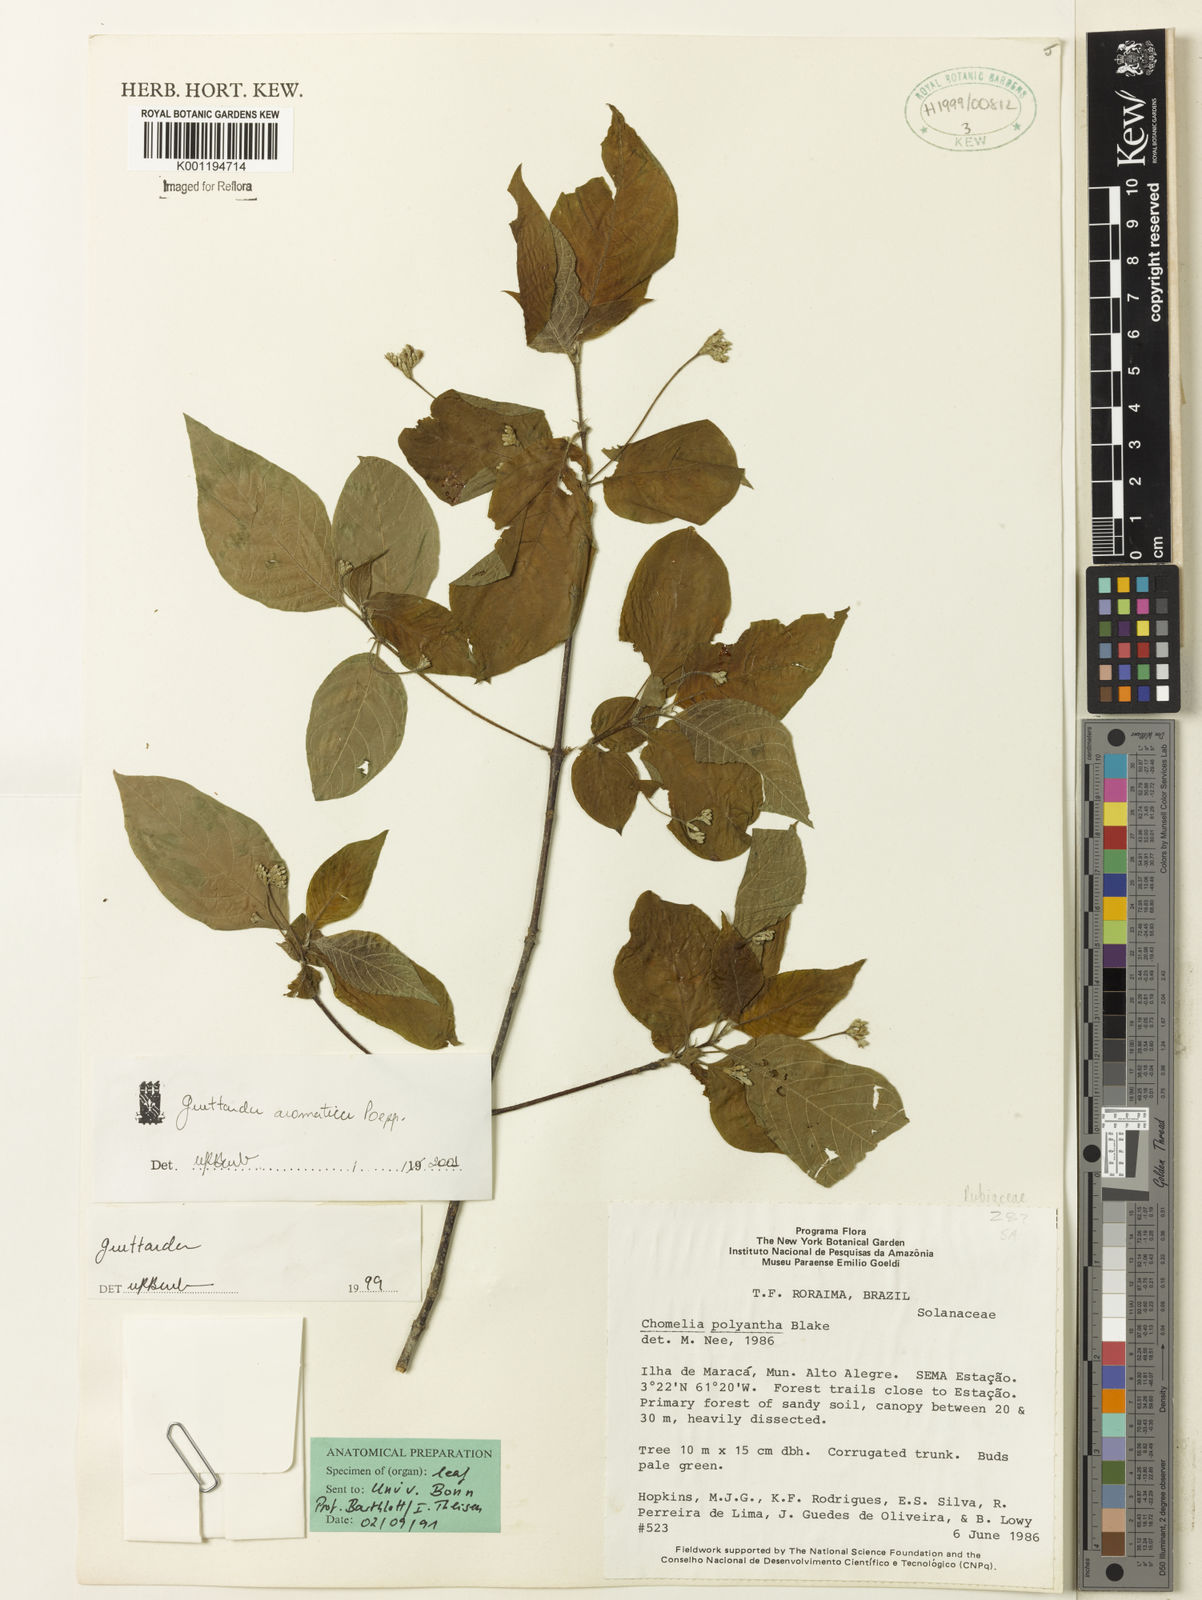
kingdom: Plantae
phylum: Tracheophyta
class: Magnoliopsida
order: Gentianales
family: Rubiaceae
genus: Guettarda
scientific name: Guettarda aromatica
